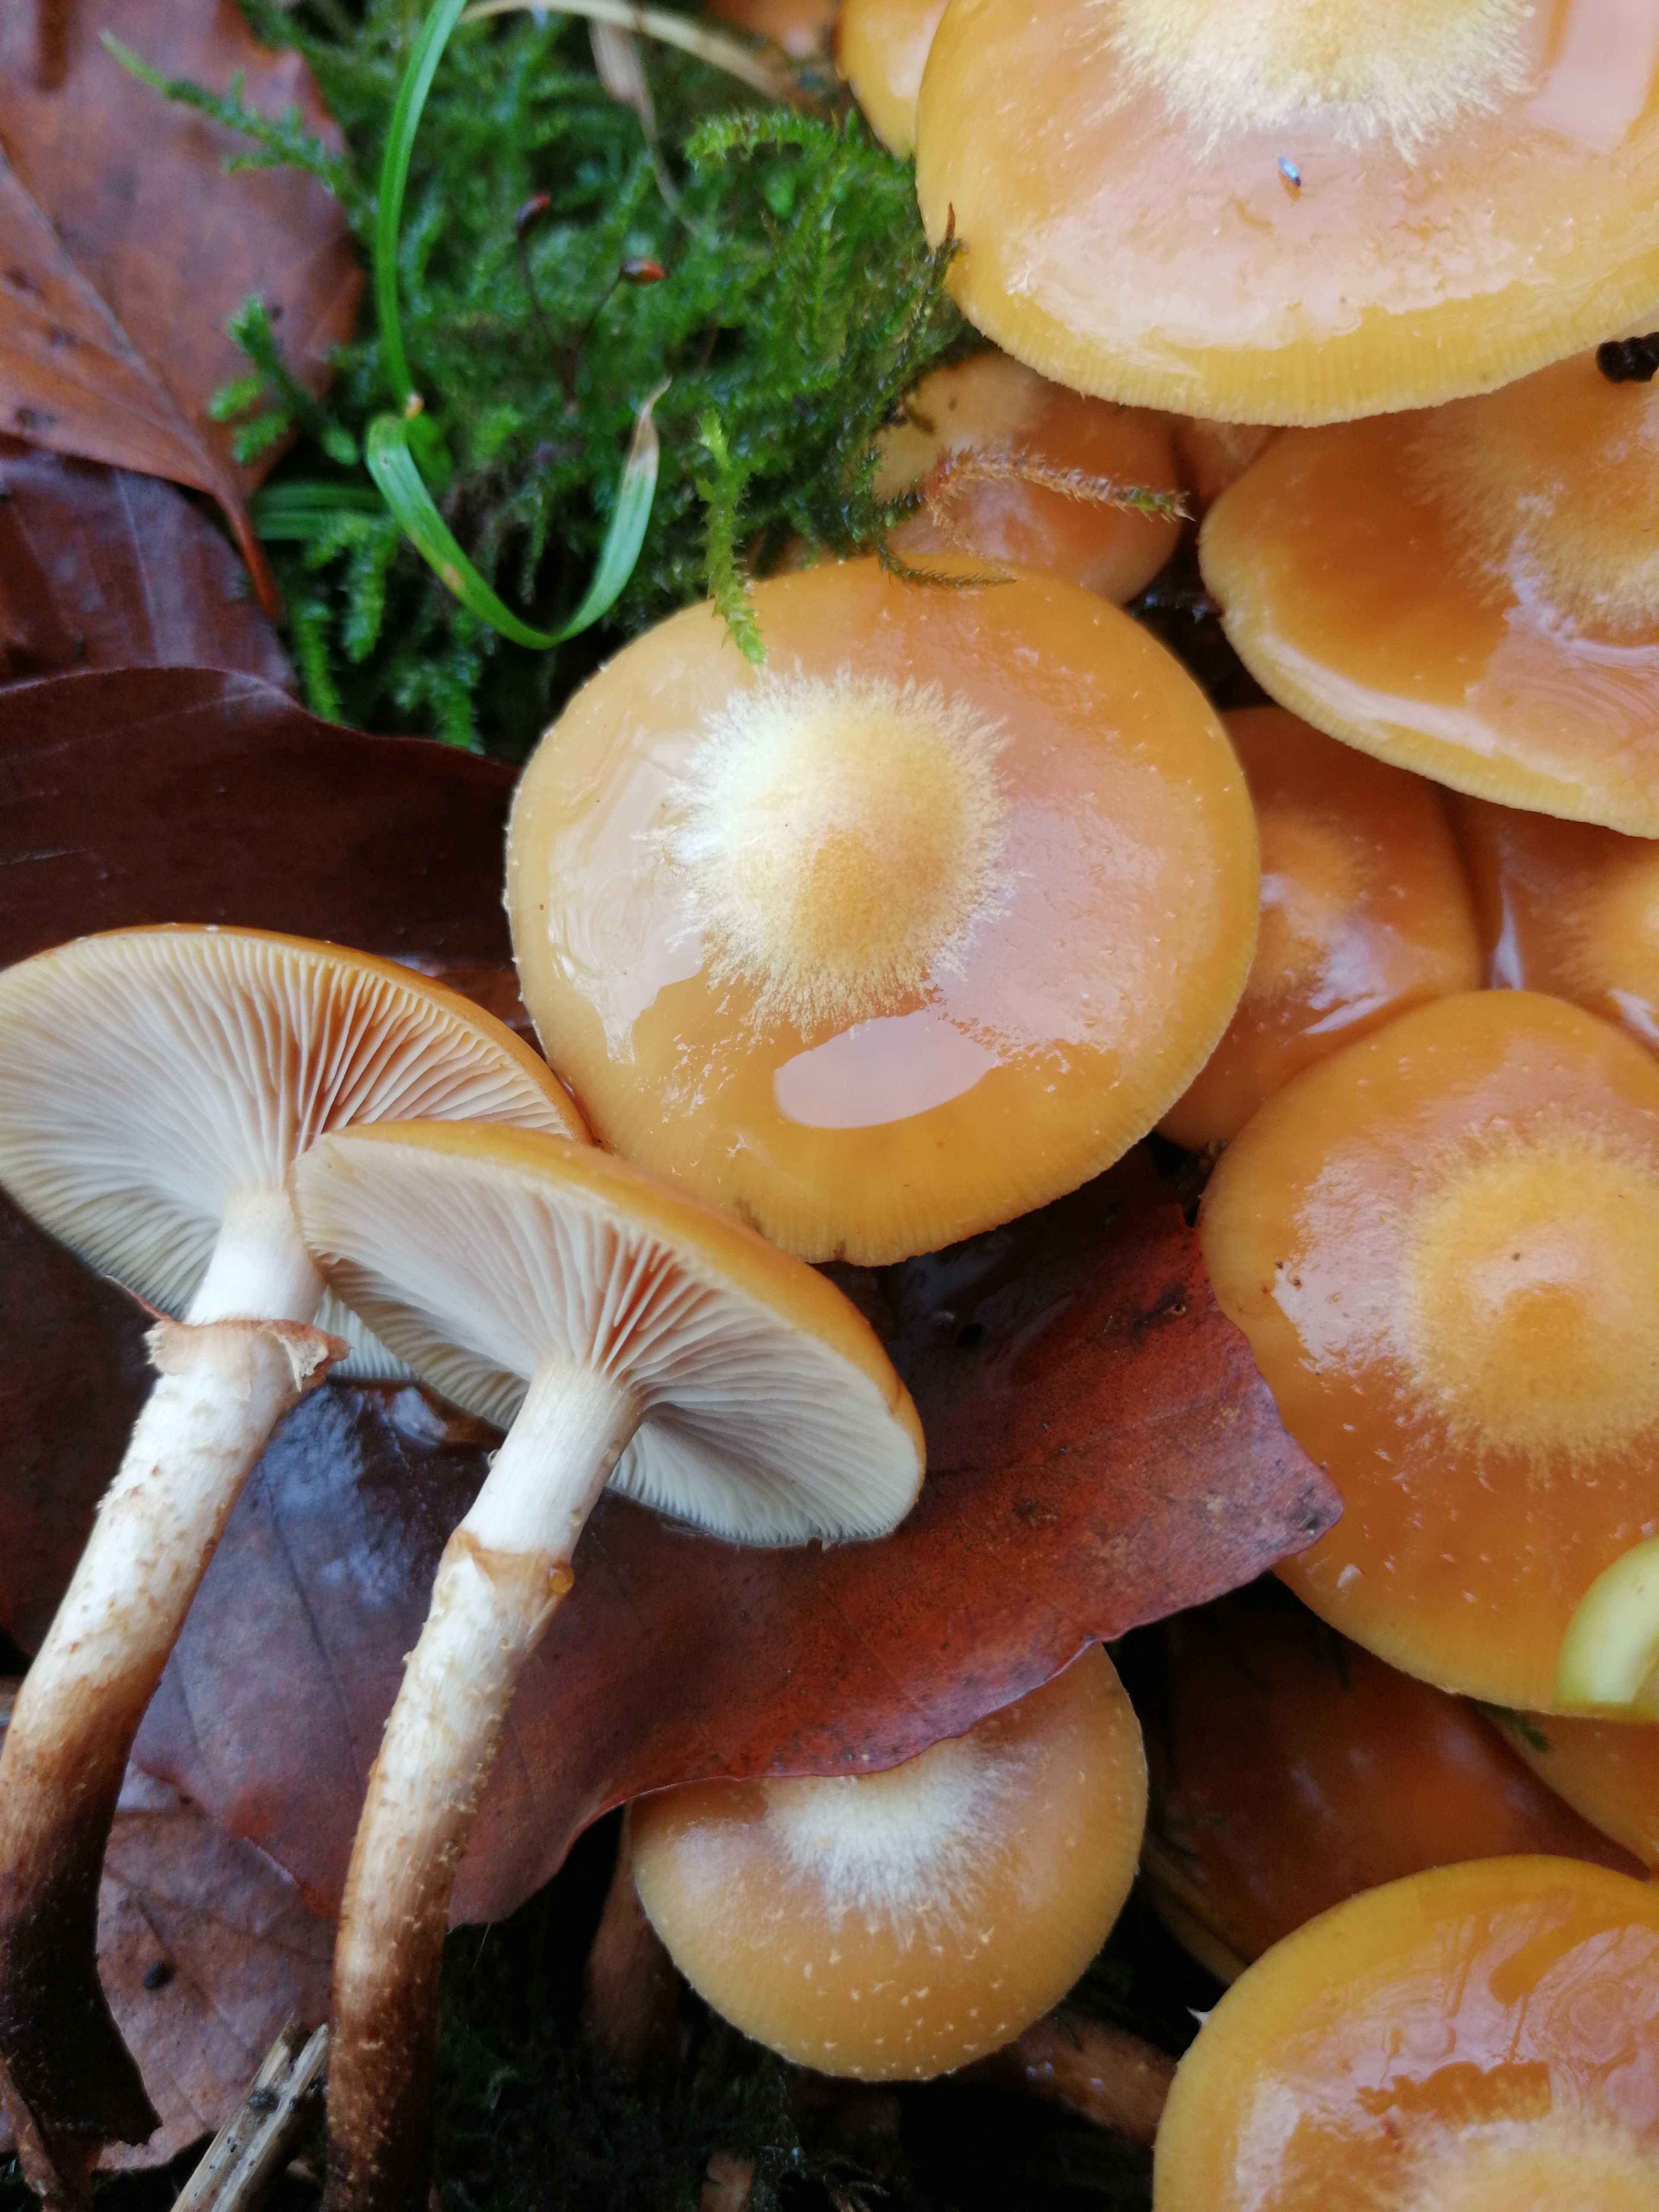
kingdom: Fungi
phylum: Basidiomycota
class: Agaricomycetes
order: Agaricales
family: Strophariaceae
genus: Kuehneromyces
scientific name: Kuehneromyces mutabilis
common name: foranderlig skælhat
